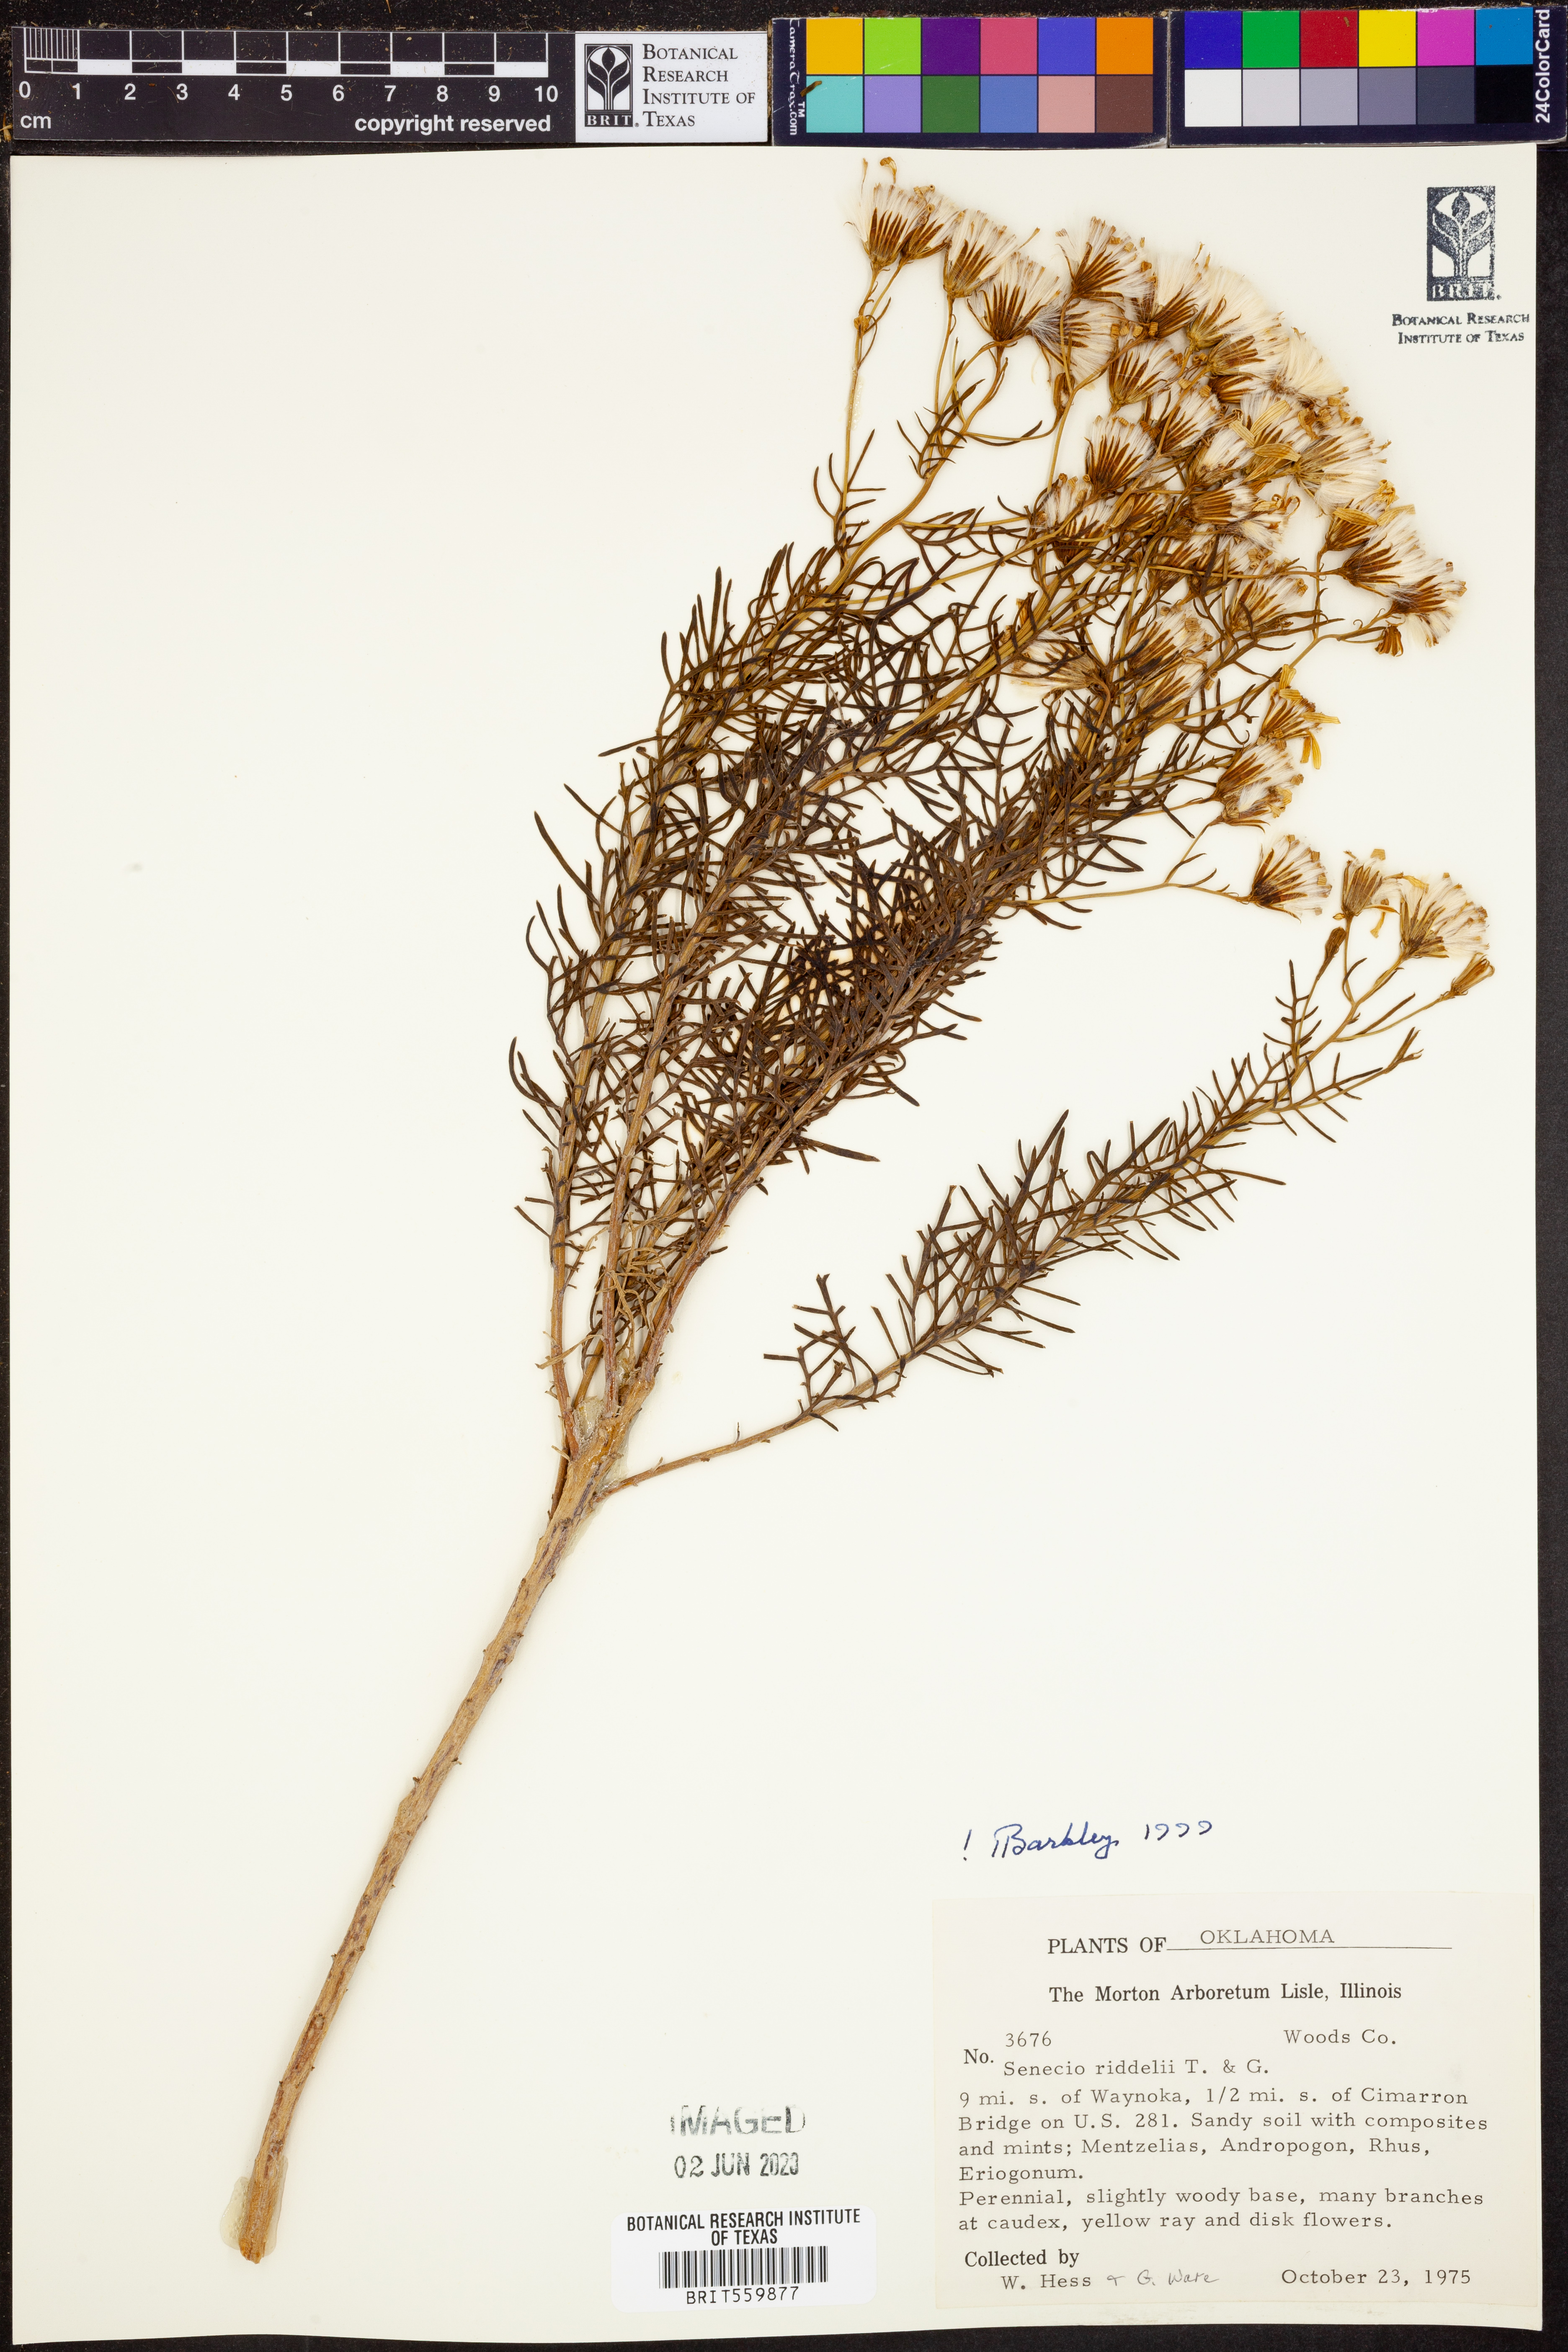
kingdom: Plantae
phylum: Tracheophyta
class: Magnoliopsida
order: Asterales
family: Asteraceae
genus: Senecio
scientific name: Senecio riddellii
